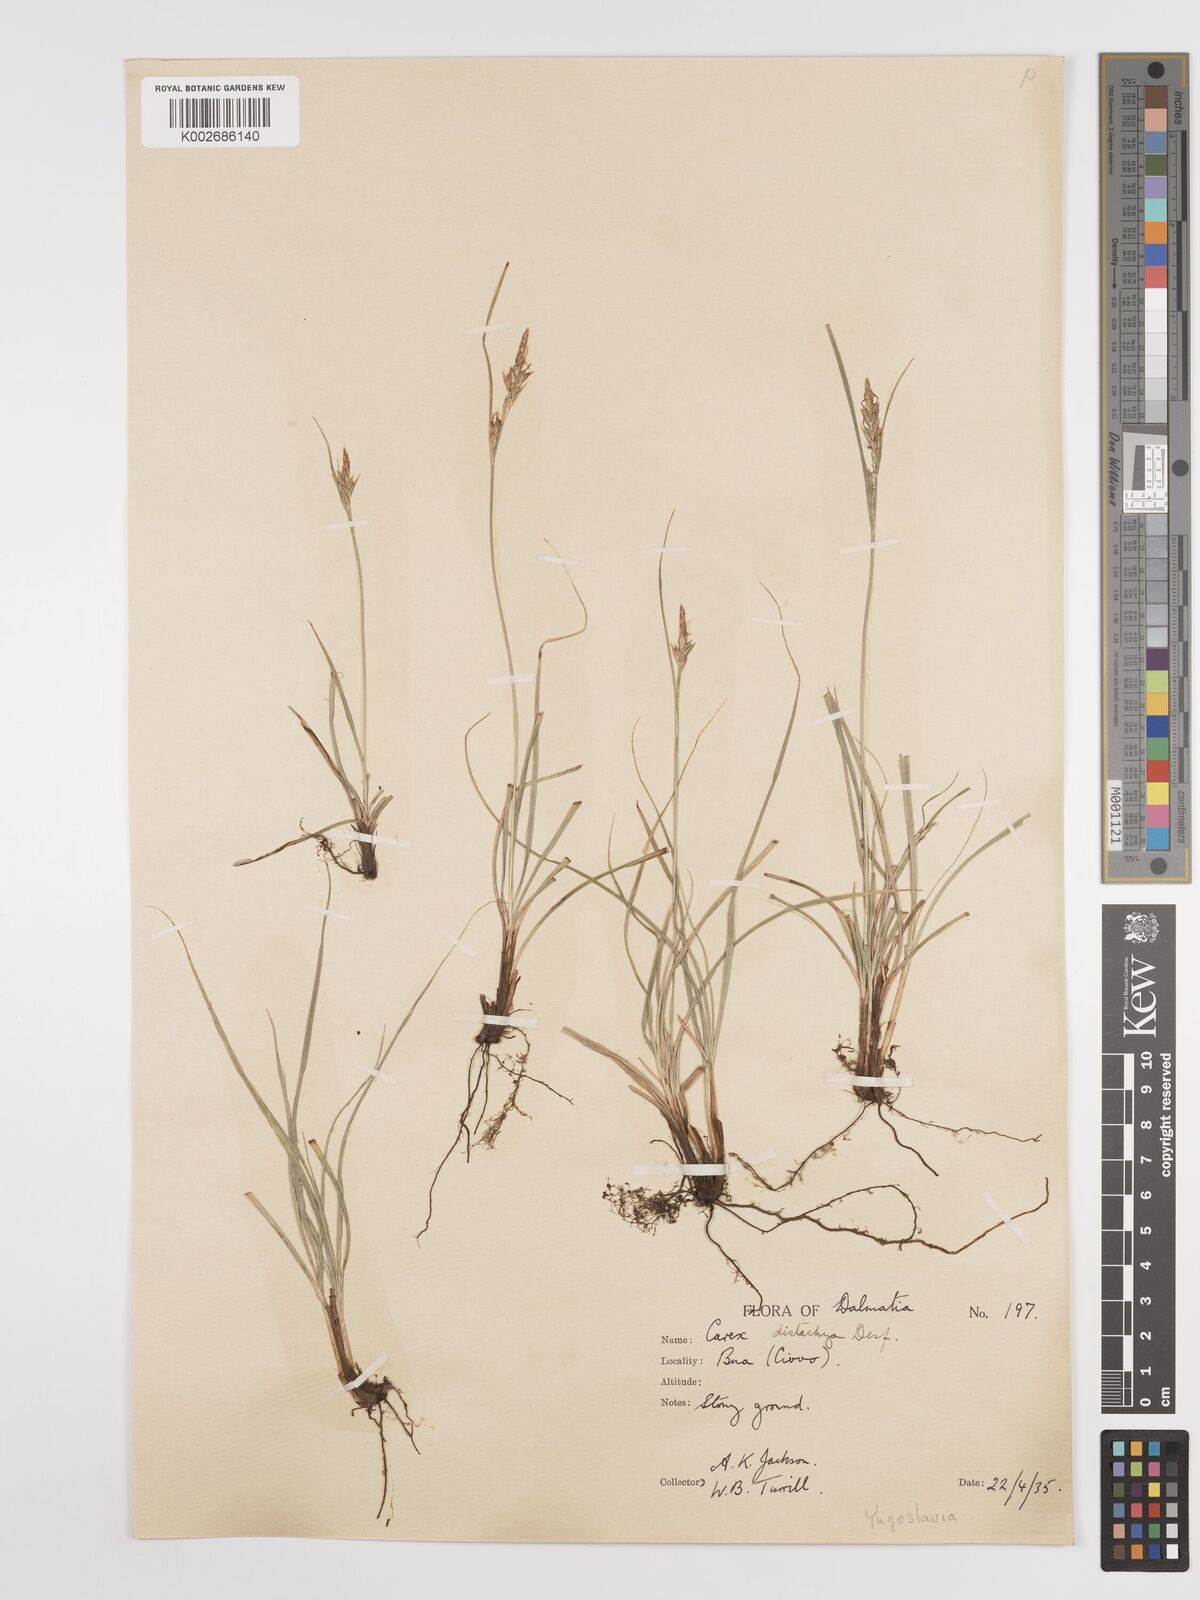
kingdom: Plantae
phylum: Tracheophyta
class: Liliopsida
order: Poales
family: Cyperaceae
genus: Carex
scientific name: Carex distachya
